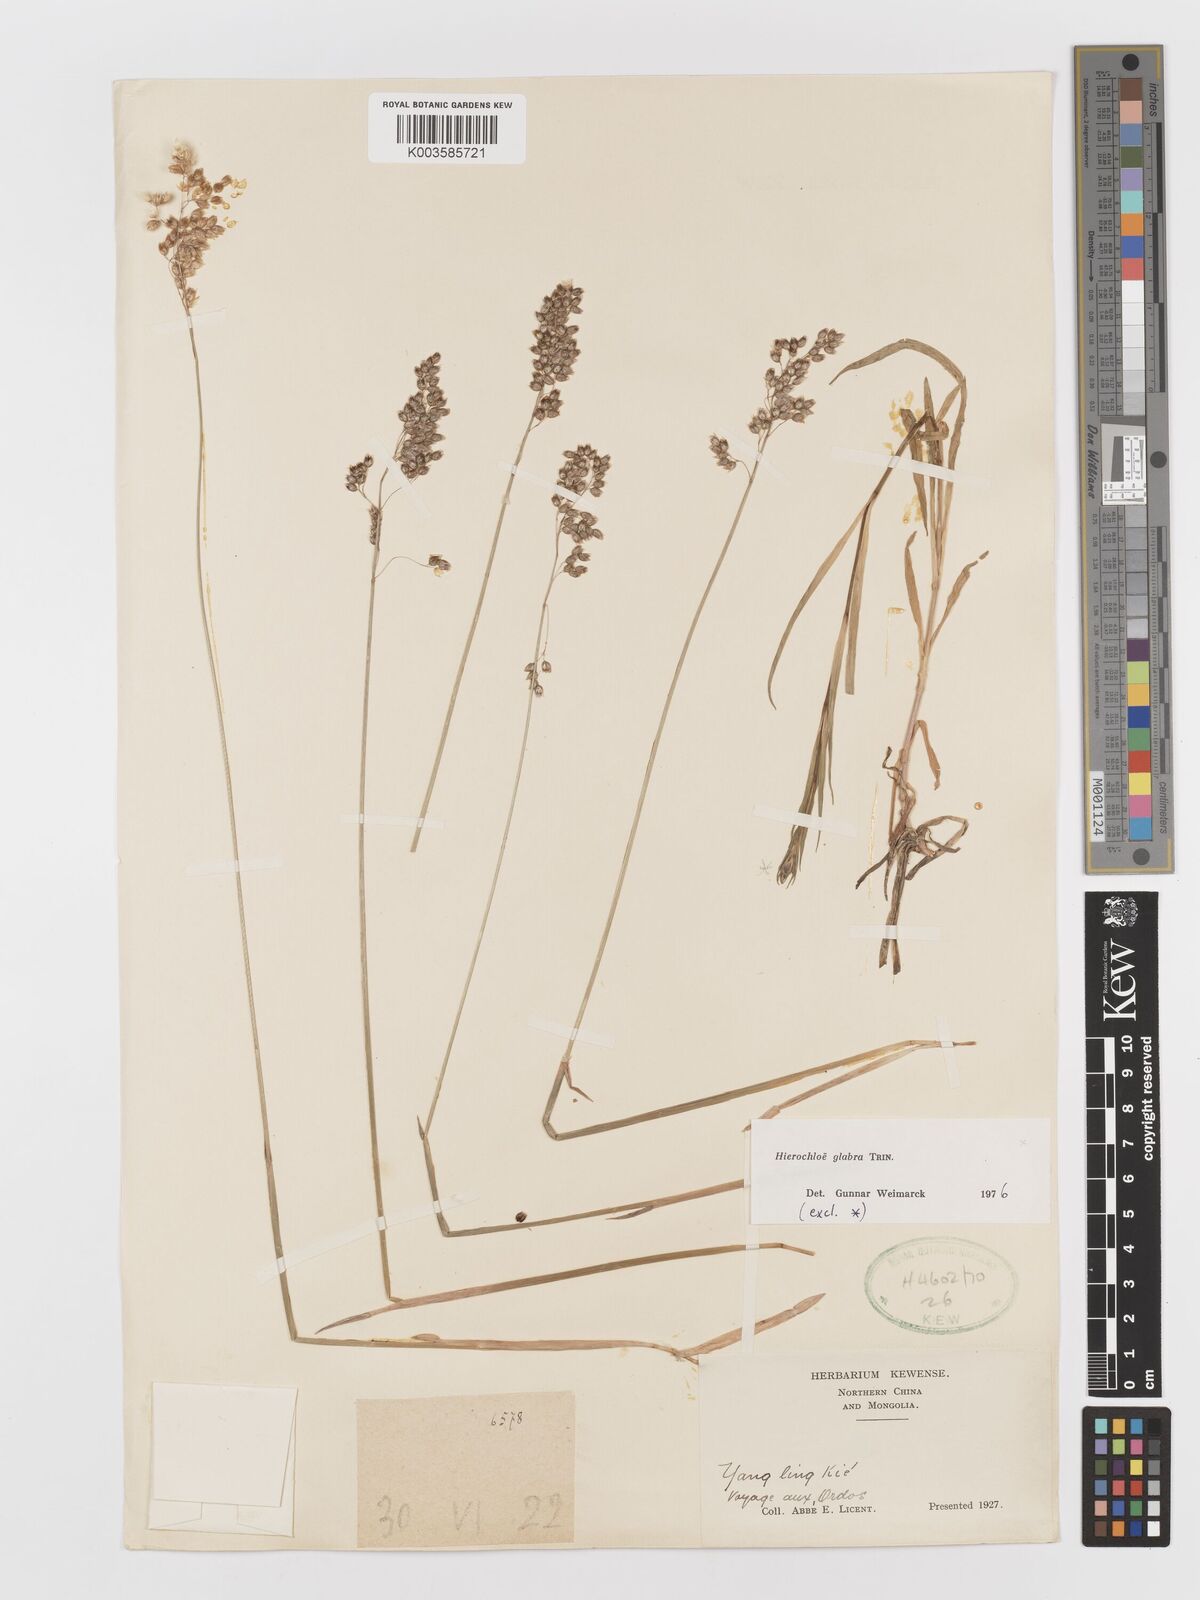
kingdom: Plantae
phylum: Tracheophyta
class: Liliopsida
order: Poales
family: Poaceae
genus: Anthoxanthum
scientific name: Anthoxanthum glabrum
